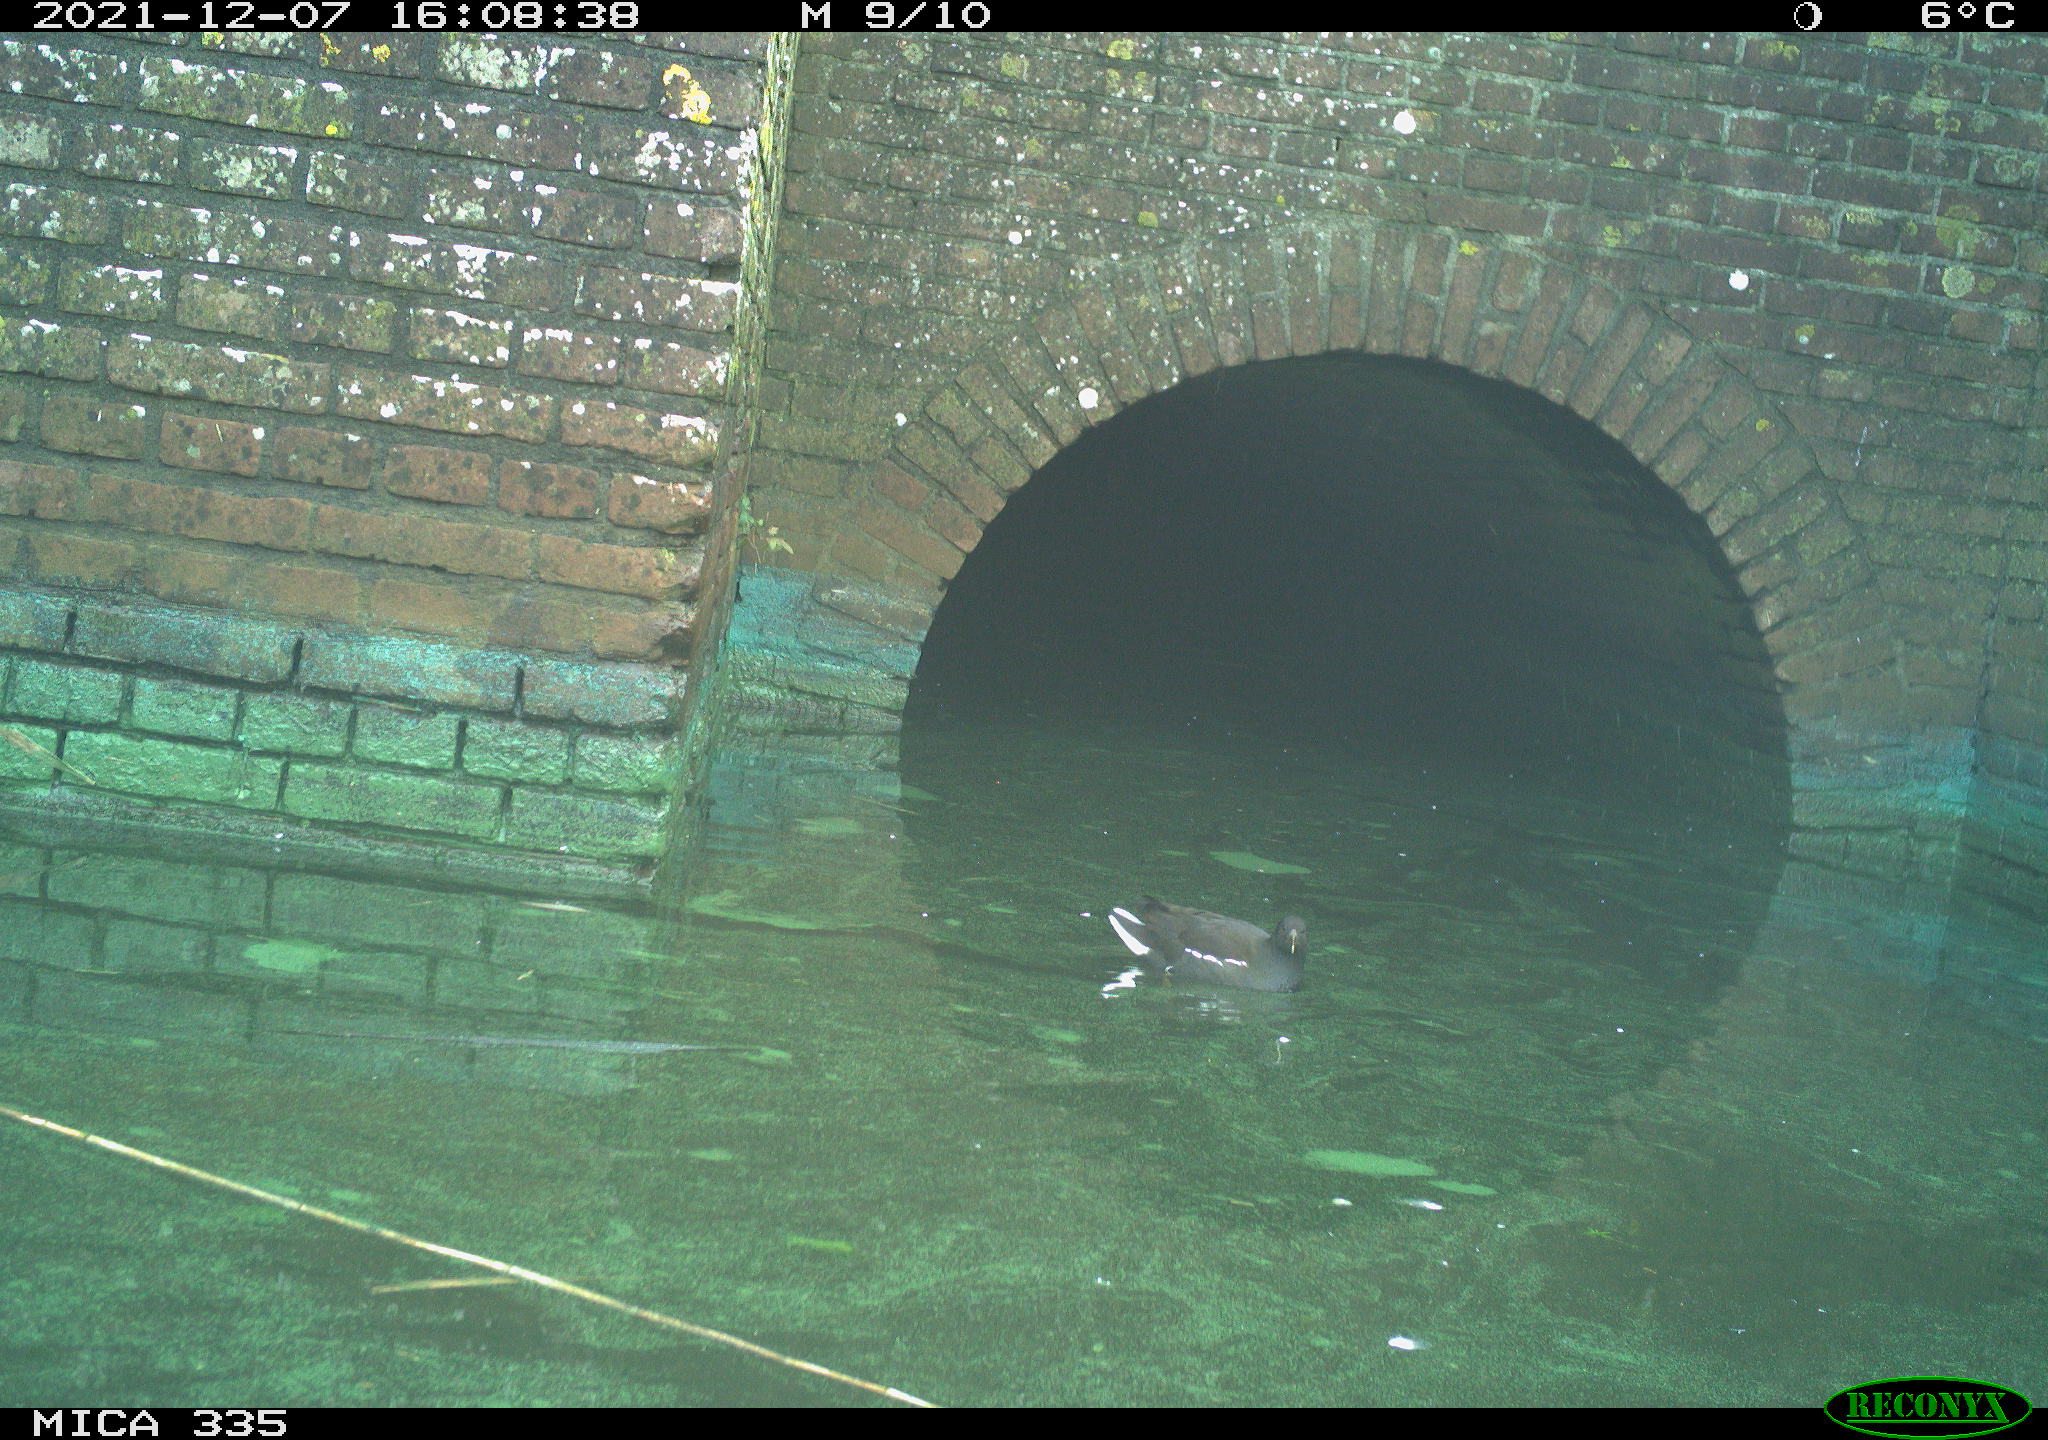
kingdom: Animalia
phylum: Chordata
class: Aves
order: Gruiformes
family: Rallidae
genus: Gallinula
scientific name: Gallinula chloropus
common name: Common moorhen
